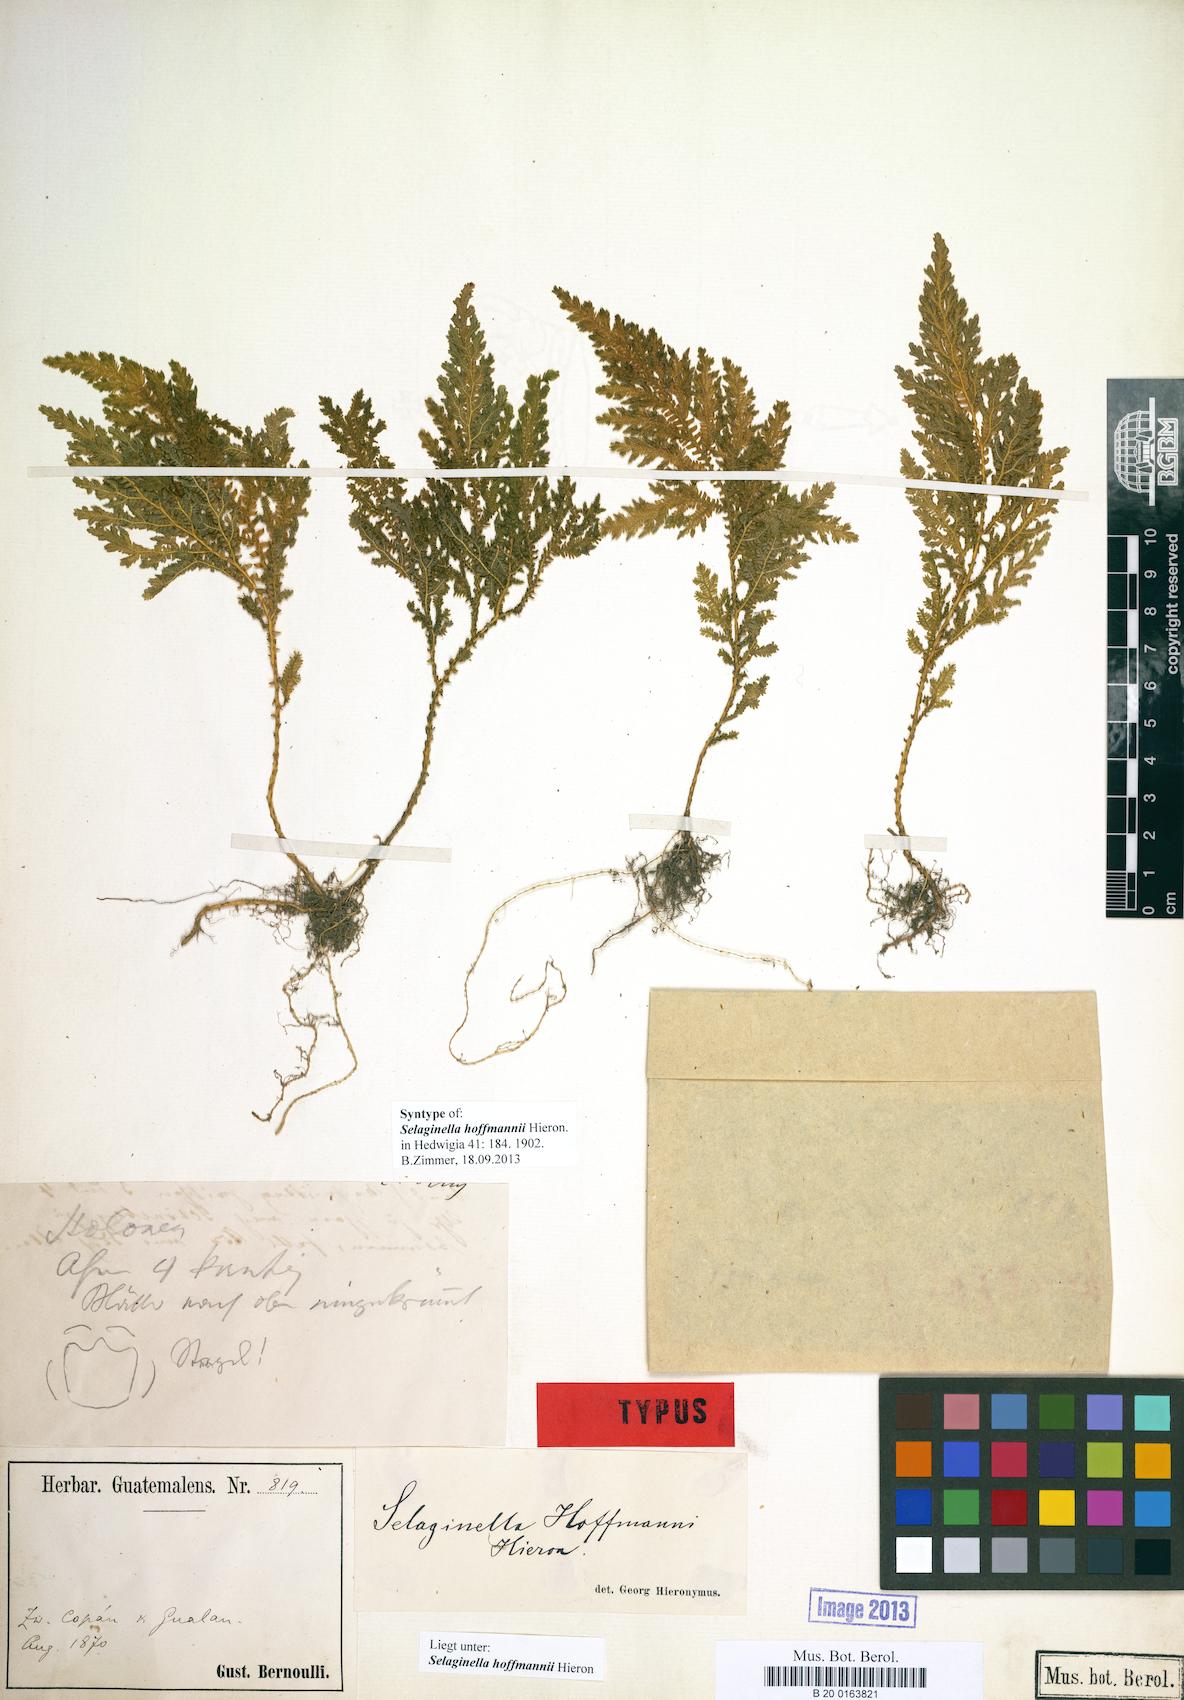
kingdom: Plantae
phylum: Tracheophyta
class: Lycopodiopsida
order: Selaginellales
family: Selaginellaceae
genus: Selaginella
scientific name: Selaginella hoffmannii
